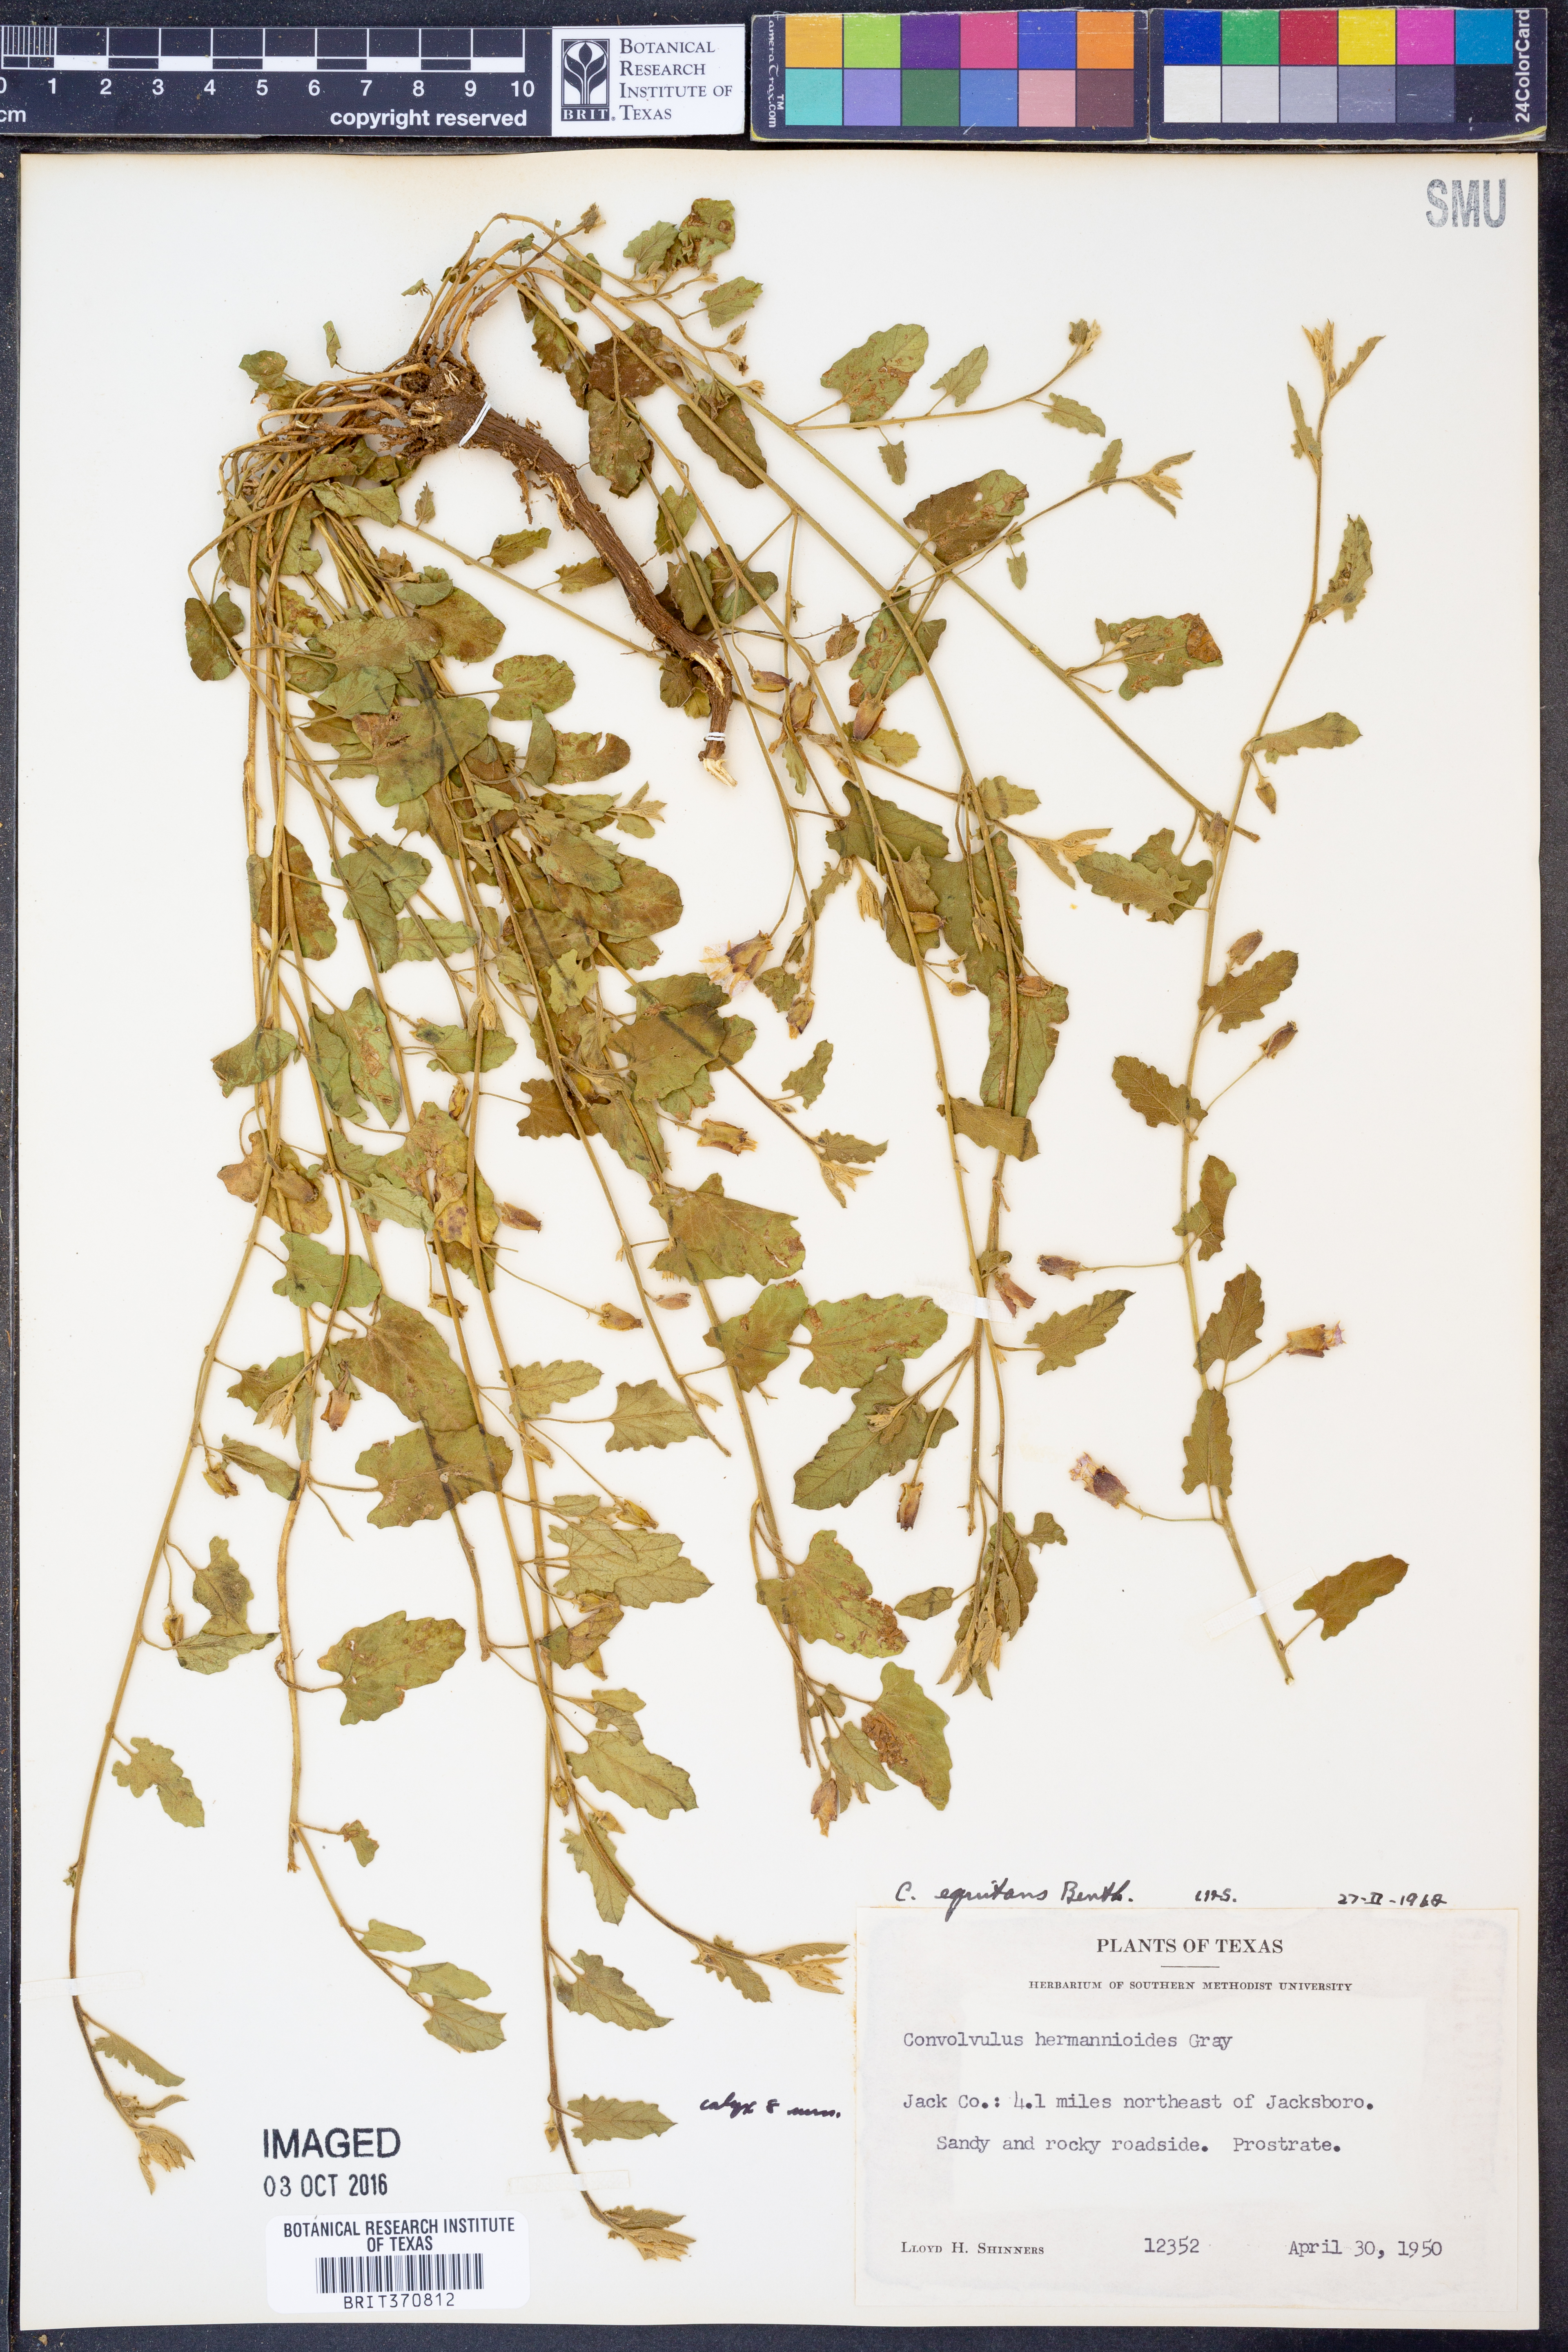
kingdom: Plantae
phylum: Tracheophyta
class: Magnoliopsida
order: Solanales
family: Convolvulaceae
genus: Convolvulus
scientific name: Convolvulus equitans
